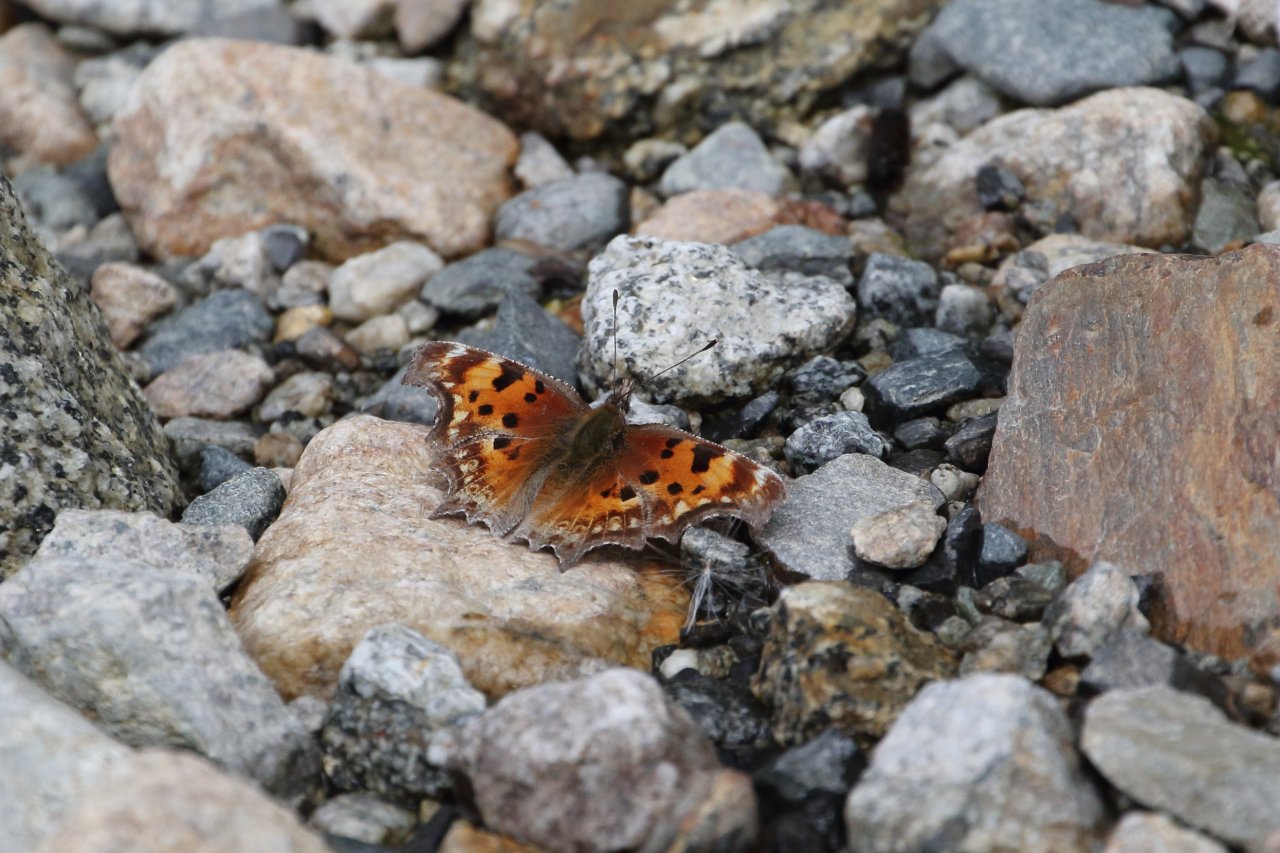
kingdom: Animalia
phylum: Arthropoda
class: Insecta
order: Lepidoptera
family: Nymphalidae
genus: Polygonia
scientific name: Polygonia gracilis
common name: Hoary Comma
